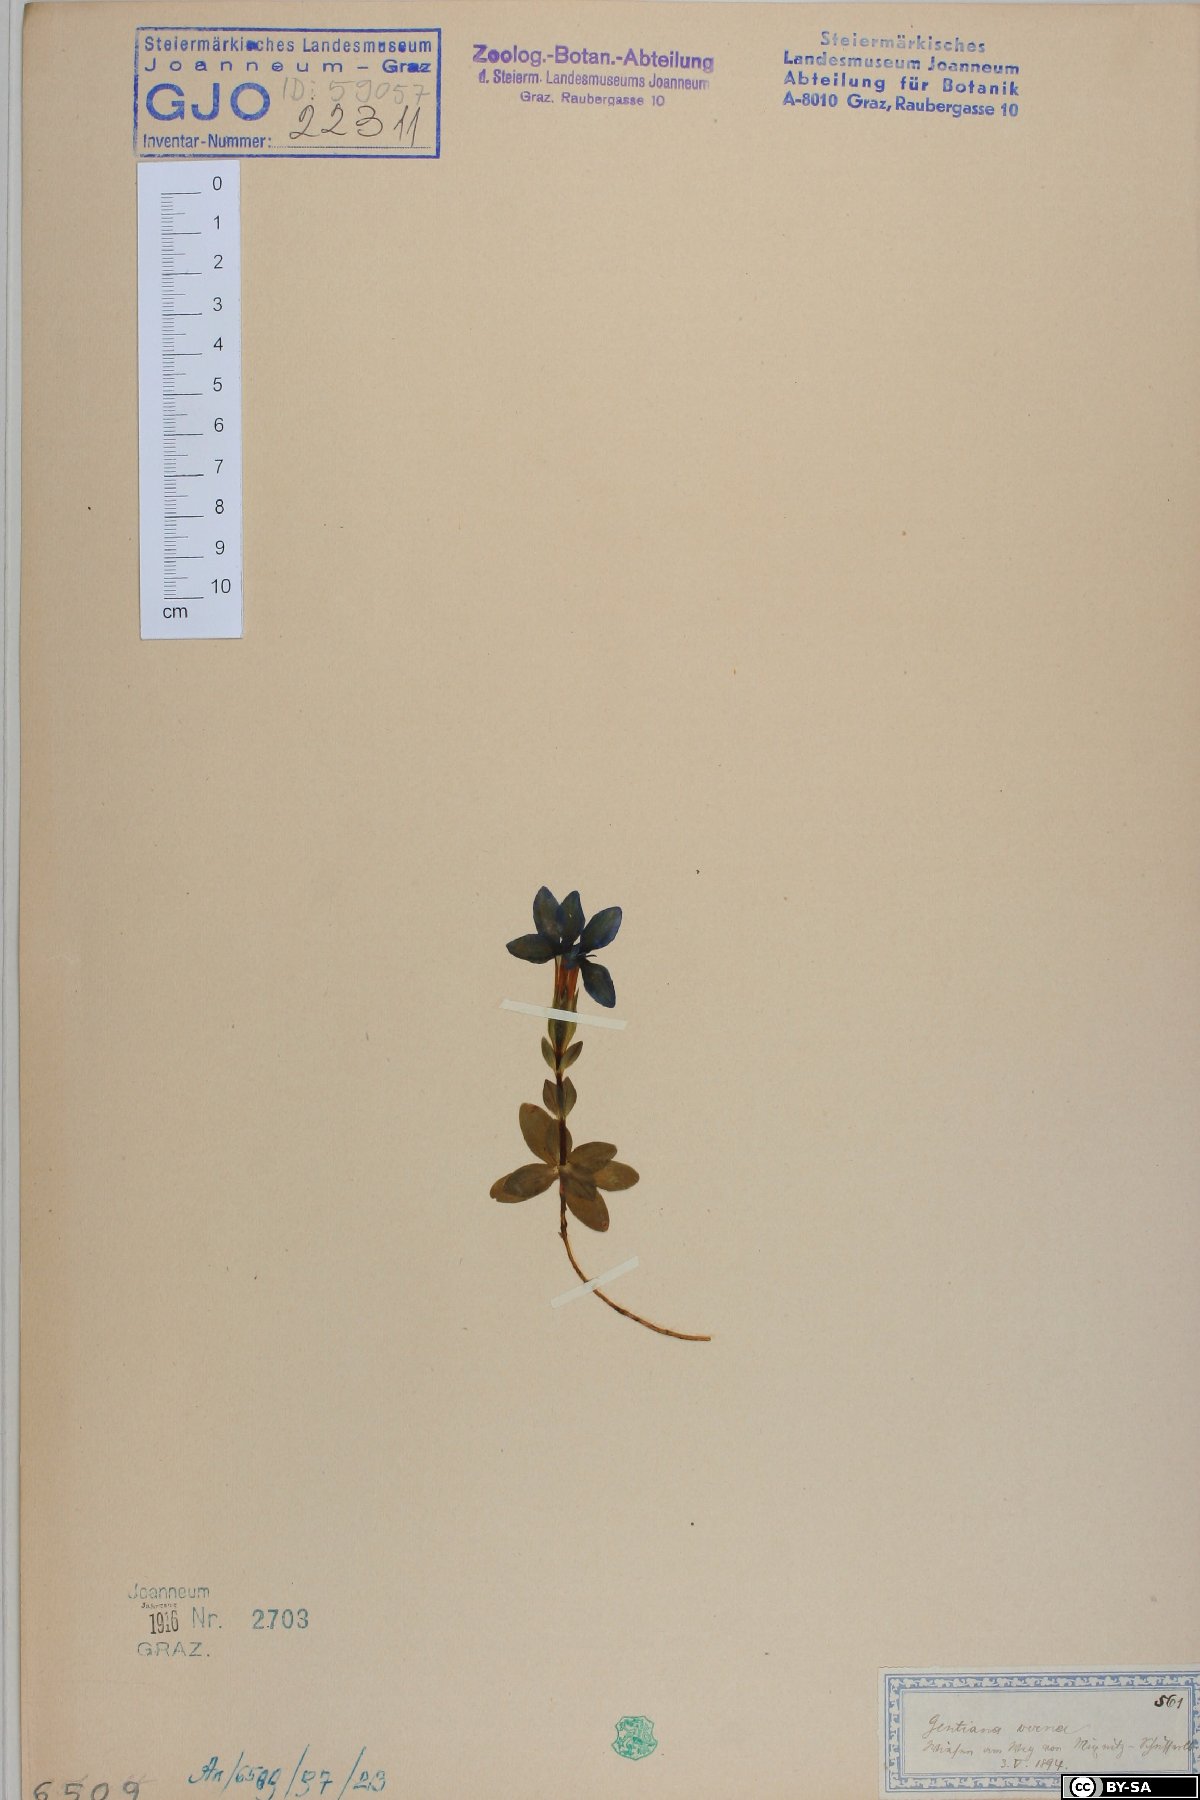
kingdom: Plantae
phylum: Tracheophyta
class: Magnoliopsida
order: Gentianales
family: Gentianaceae
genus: Gentiana
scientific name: Gentiana verna
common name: Spring gentian
